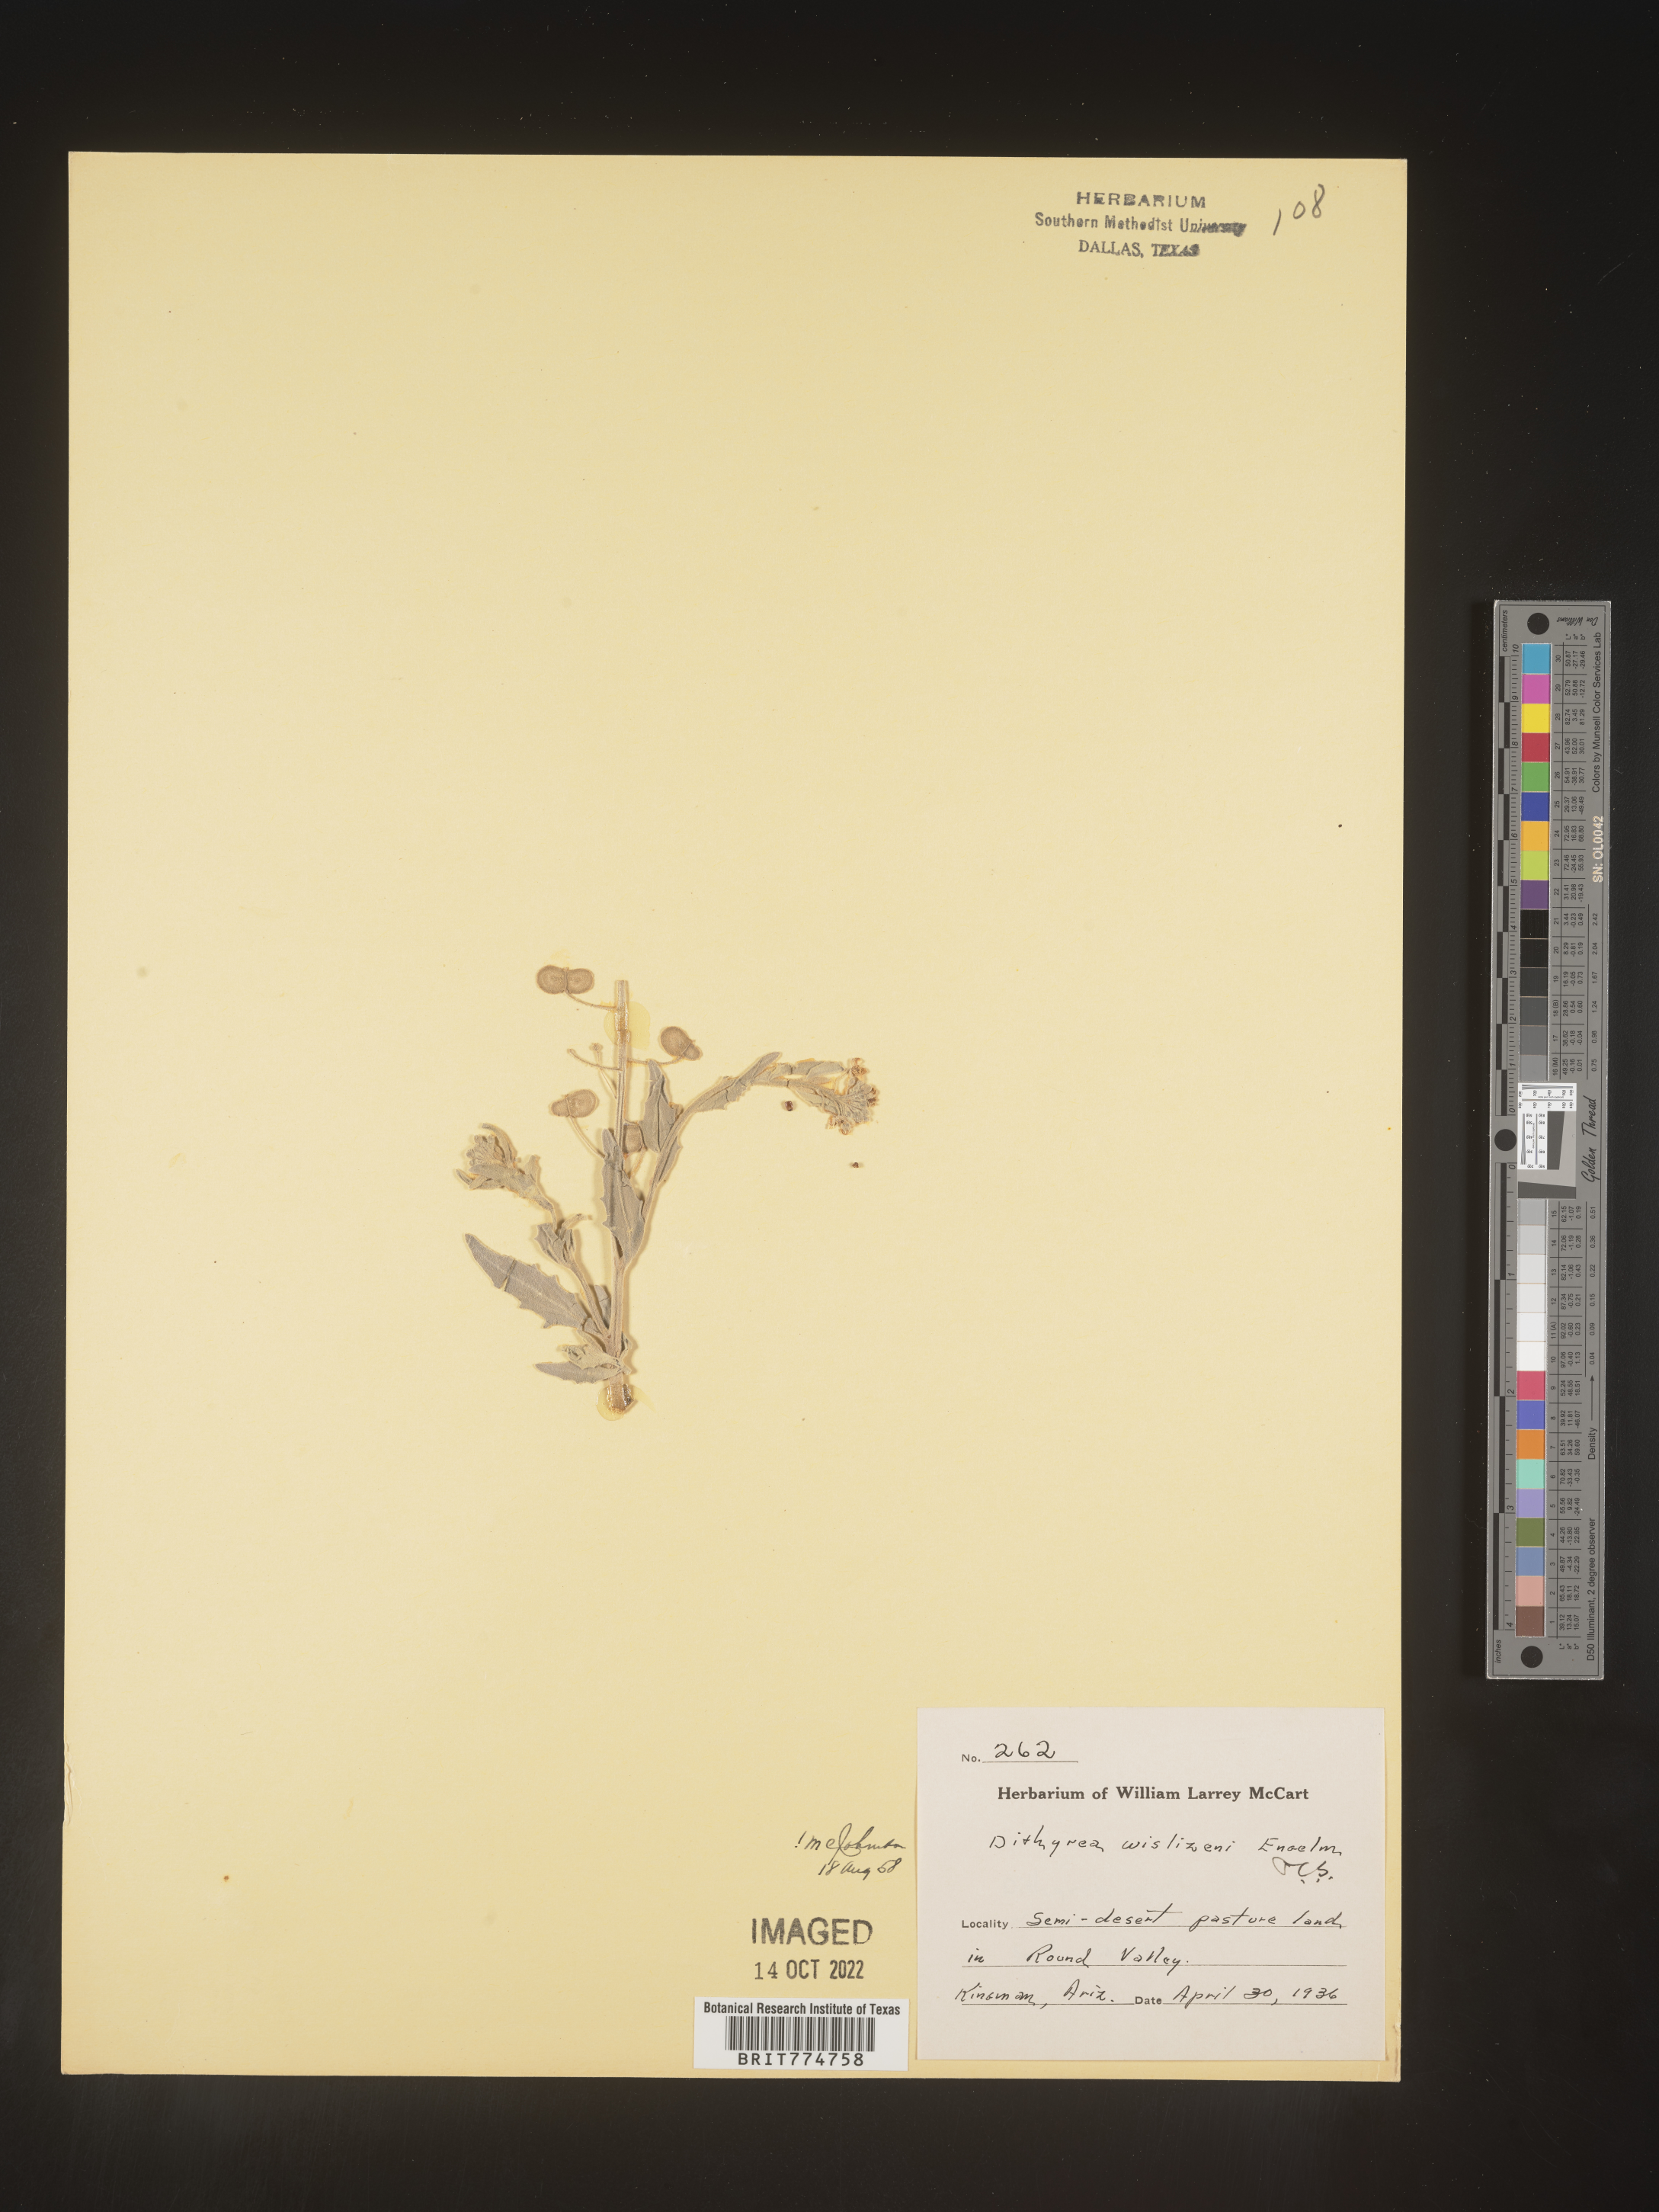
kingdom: Plantae
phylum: Tracheophyta
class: Magnoliopsida
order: Brassicales
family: Brassicaceae
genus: Dimorphocarpa
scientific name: Dimorphocarpa wislizenii
